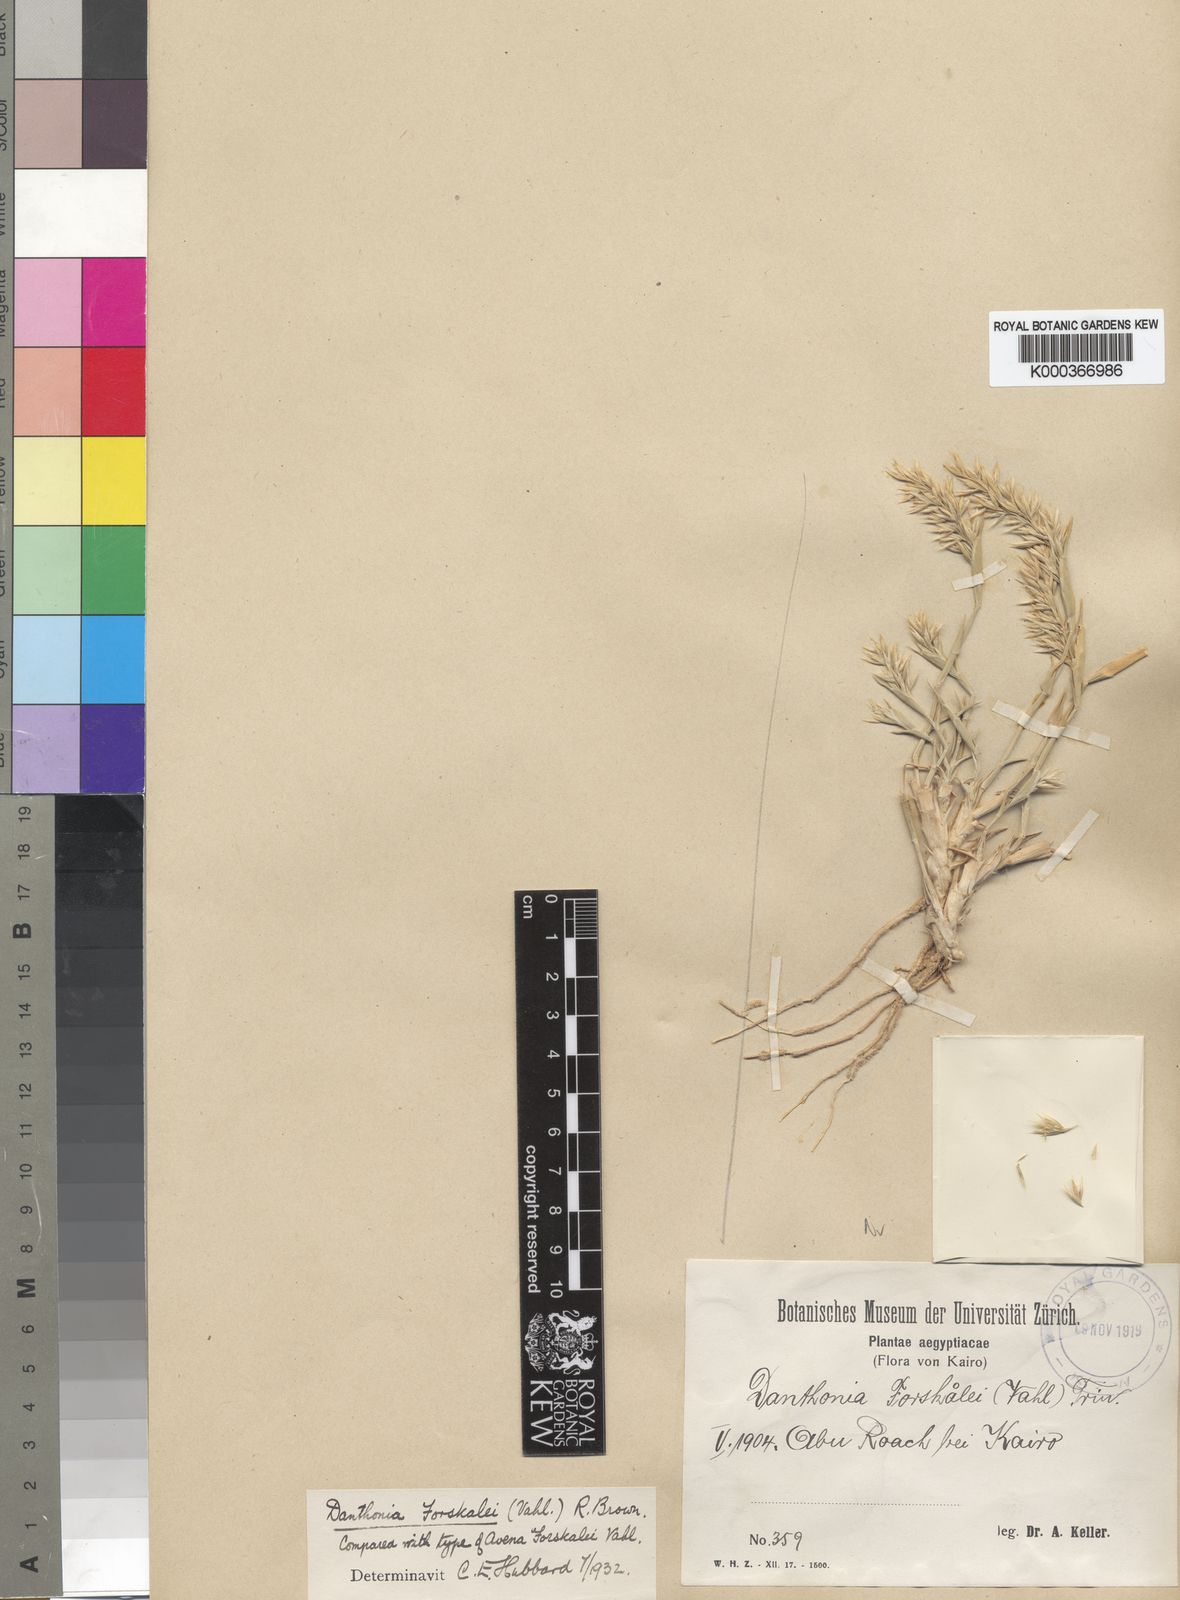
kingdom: Plantae
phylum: Tracheophyta
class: Liliopsida
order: Poales
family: Poaceae
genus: Centropodia
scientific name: Centropodia forskaolii
